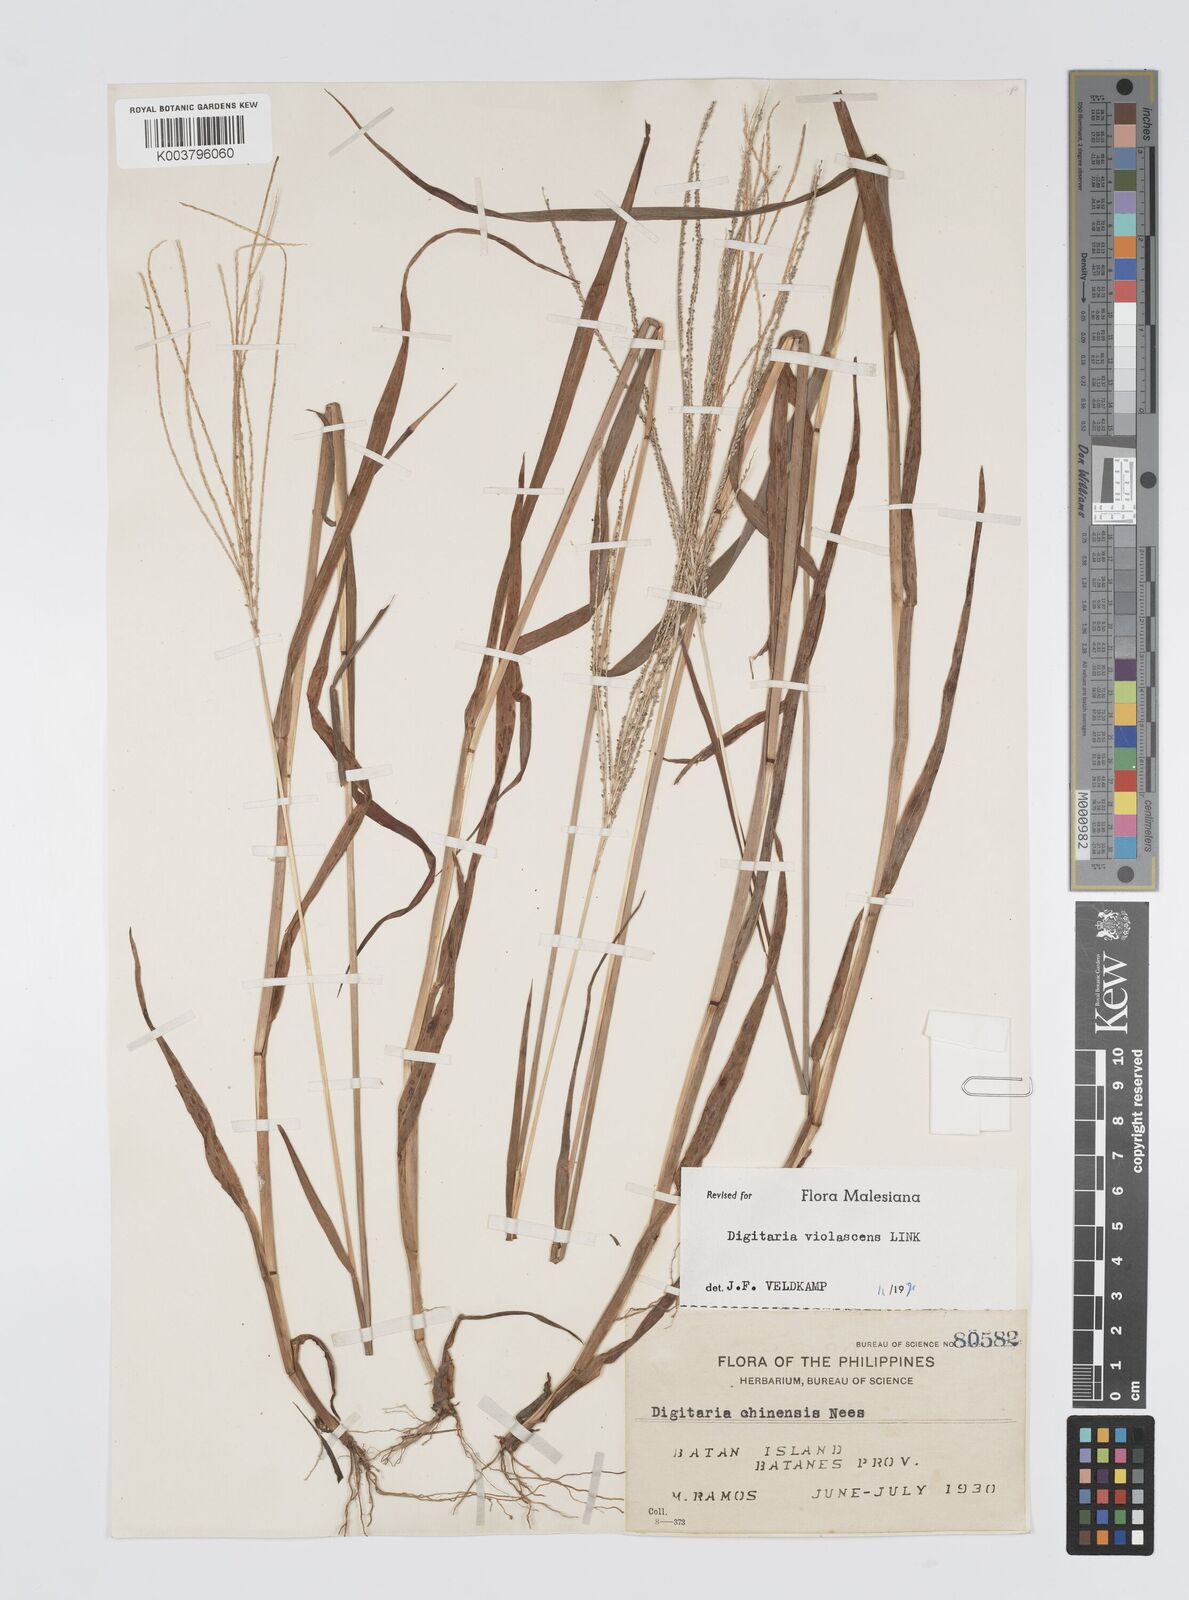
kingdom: Plantae
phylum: Tracheophyta
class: Liliopsida
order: Poales
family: Poaceae
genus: Digitaria
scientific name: Digitaria violascens
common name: Violet crabgrass
